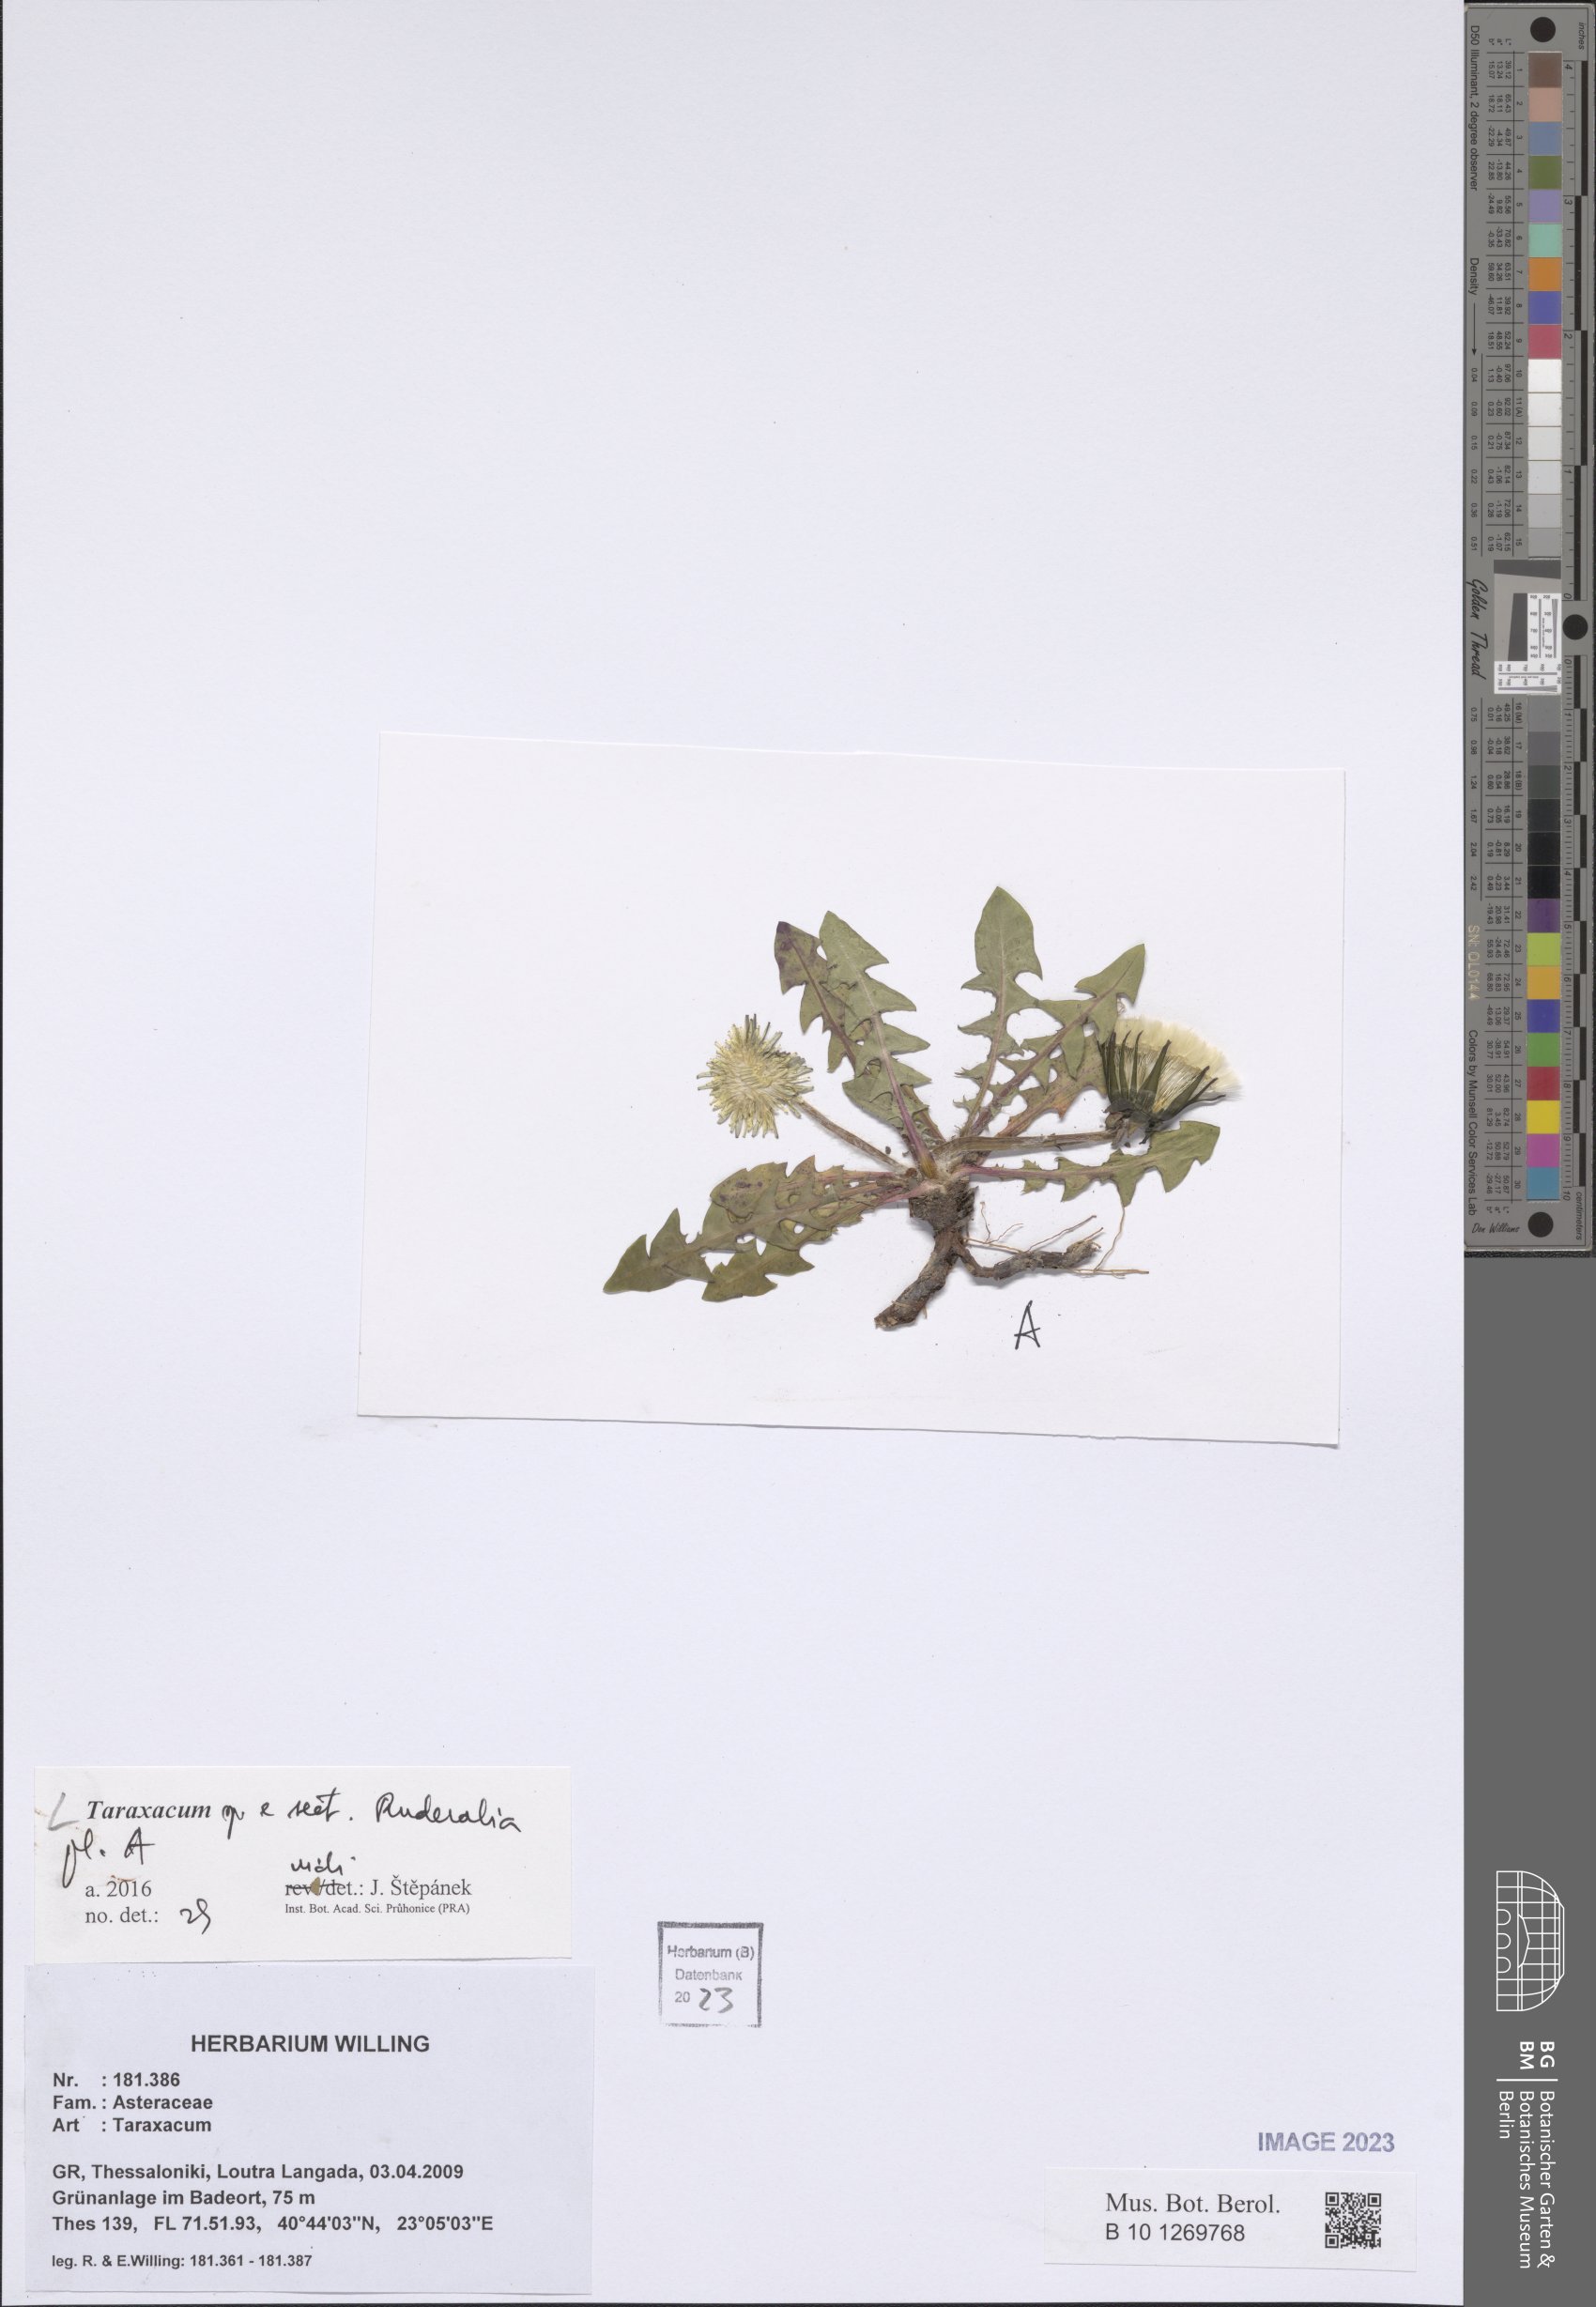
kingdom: Plantae
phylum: Tracheophyta
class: Magnoliopsida
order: Asterales
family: Asteraceae
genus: Taraxacum
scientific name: Taraxacum
